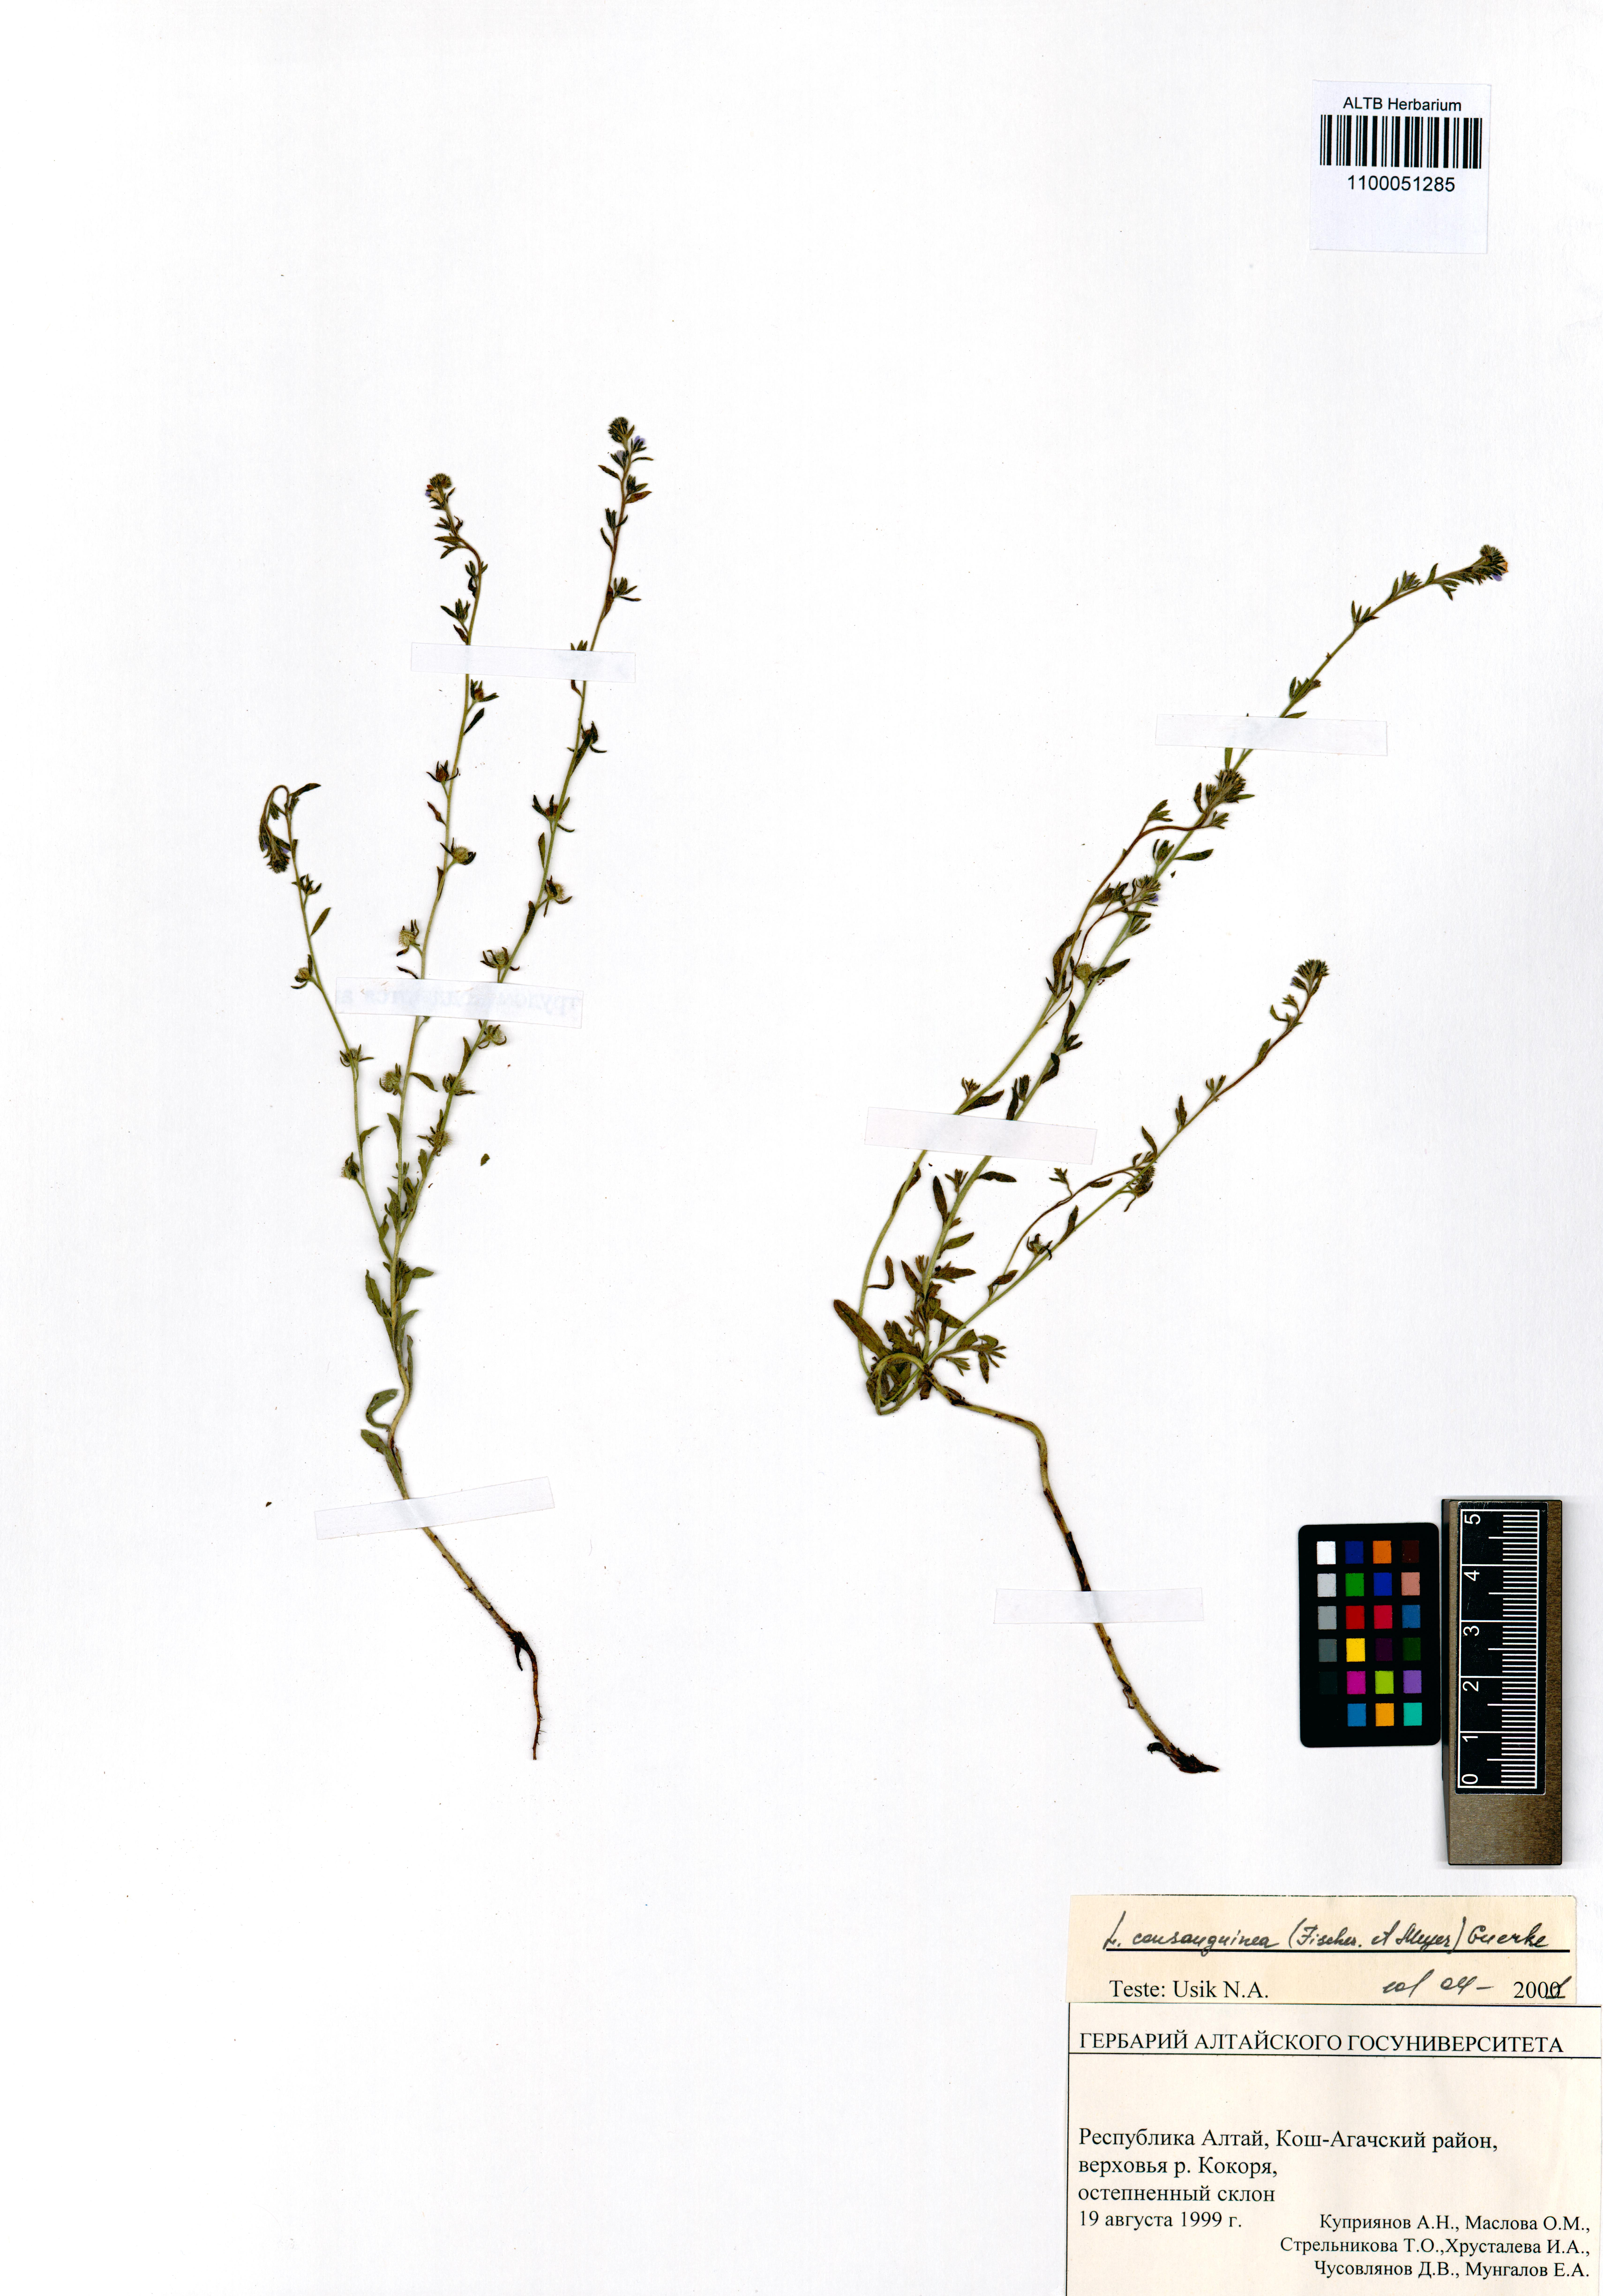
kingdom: Plantae
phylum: Tracheophyta
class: Magnoliopsida
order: Boraginales
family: Boraginaceae
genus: Lappula
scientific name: Lappula squarrosa
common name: European stickseed
